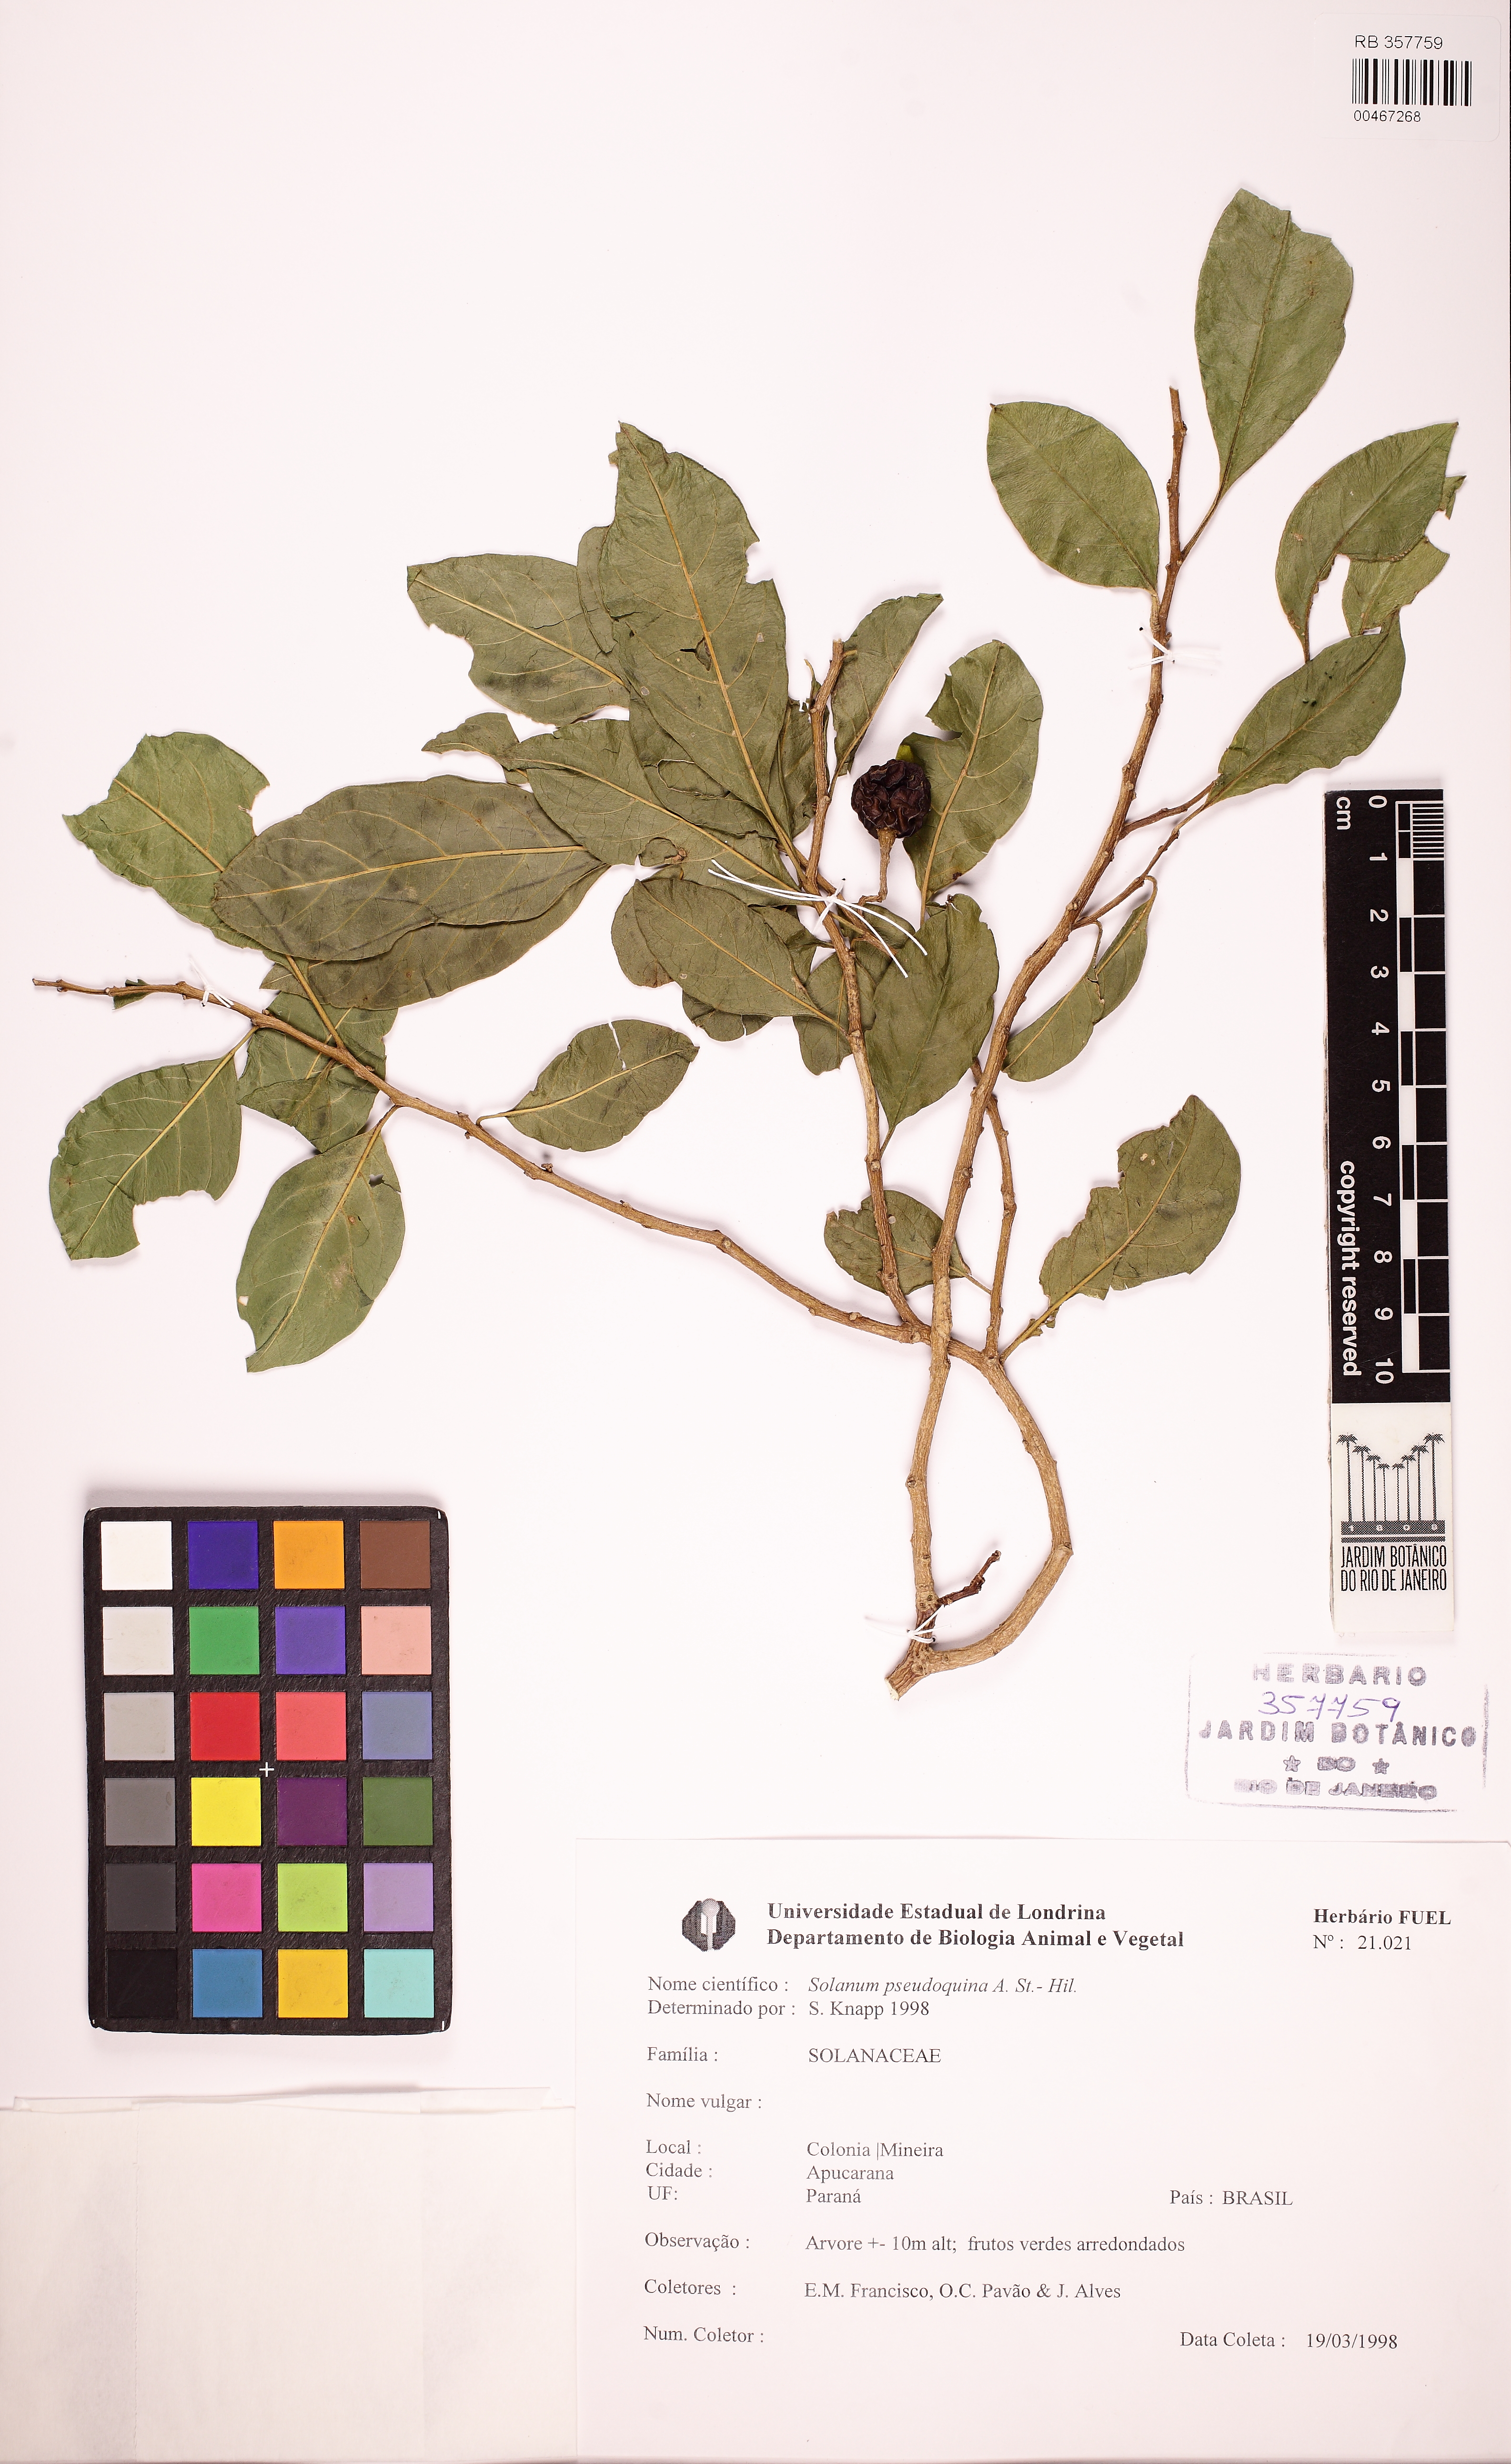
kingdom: Plantae
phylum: Tracheophyta
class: Magnoliopsida
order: Solanales
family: Solanaceae
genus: Solanum
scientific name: Solanum pseudoquina
